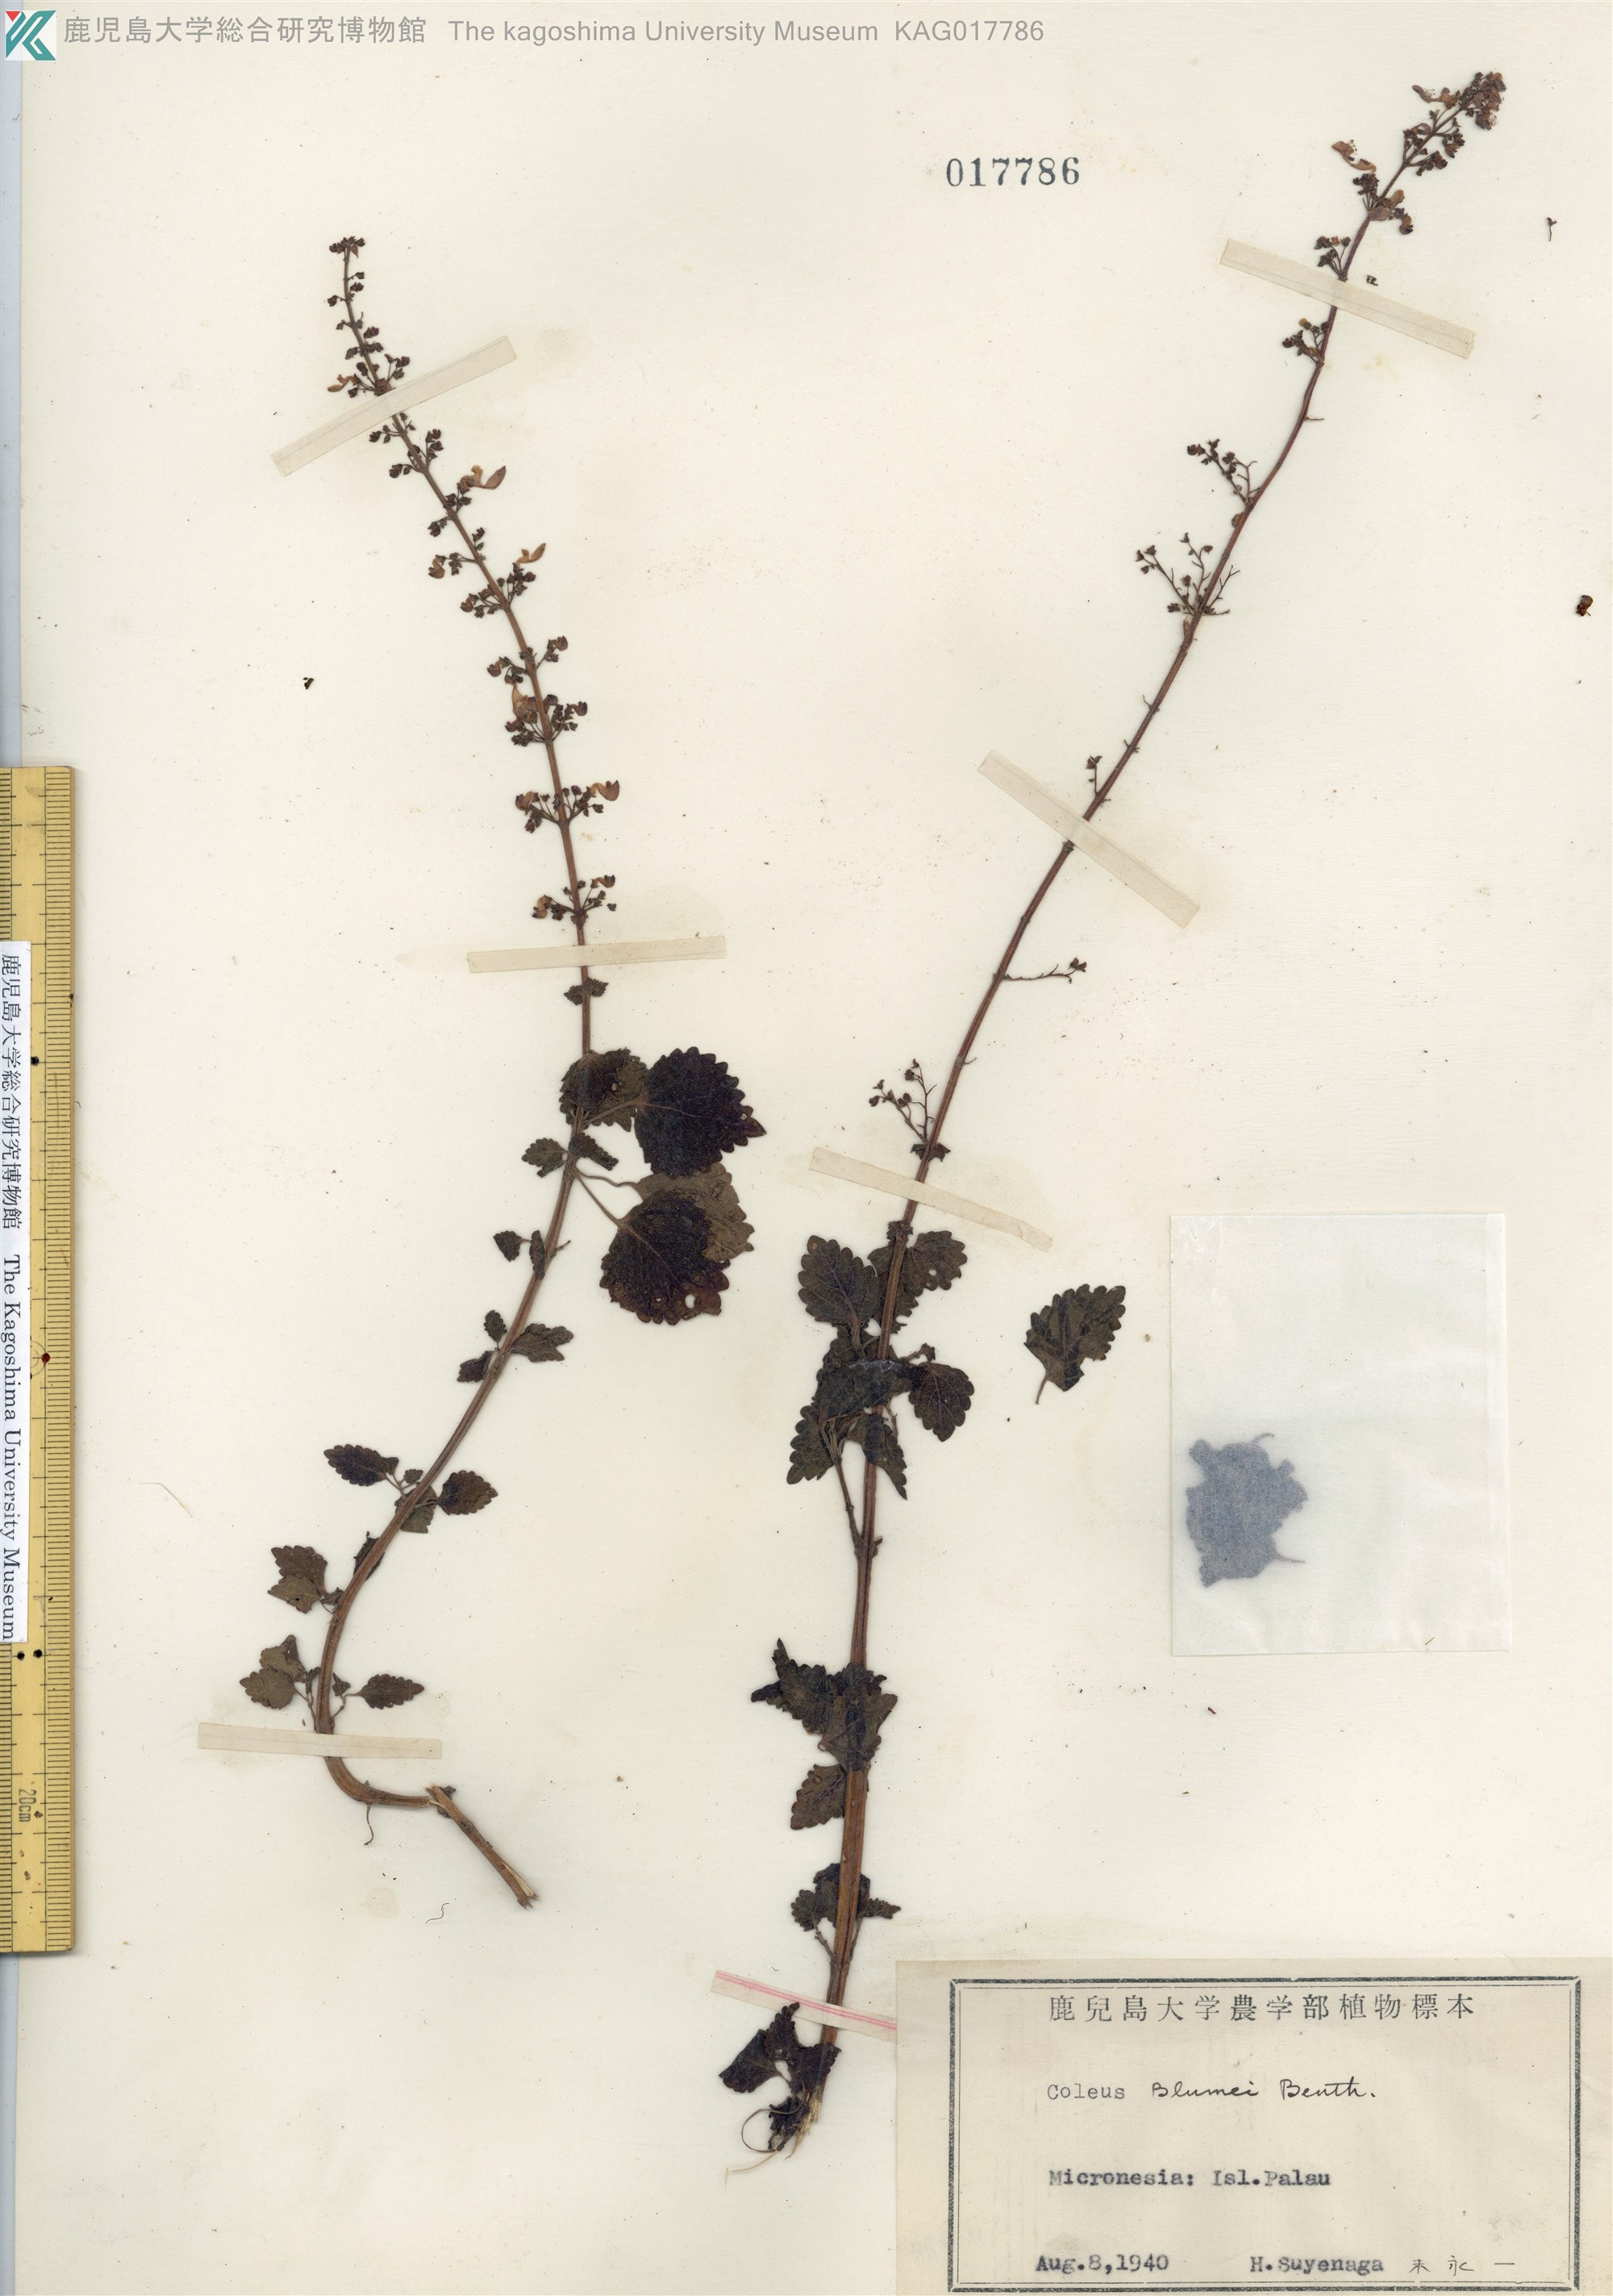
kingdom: Plantae
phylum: Tracheophyta
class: Magnoliopsida
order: Lamiales
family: Lamiaceae
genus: Coleus
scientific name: Coleus scutellarioides
